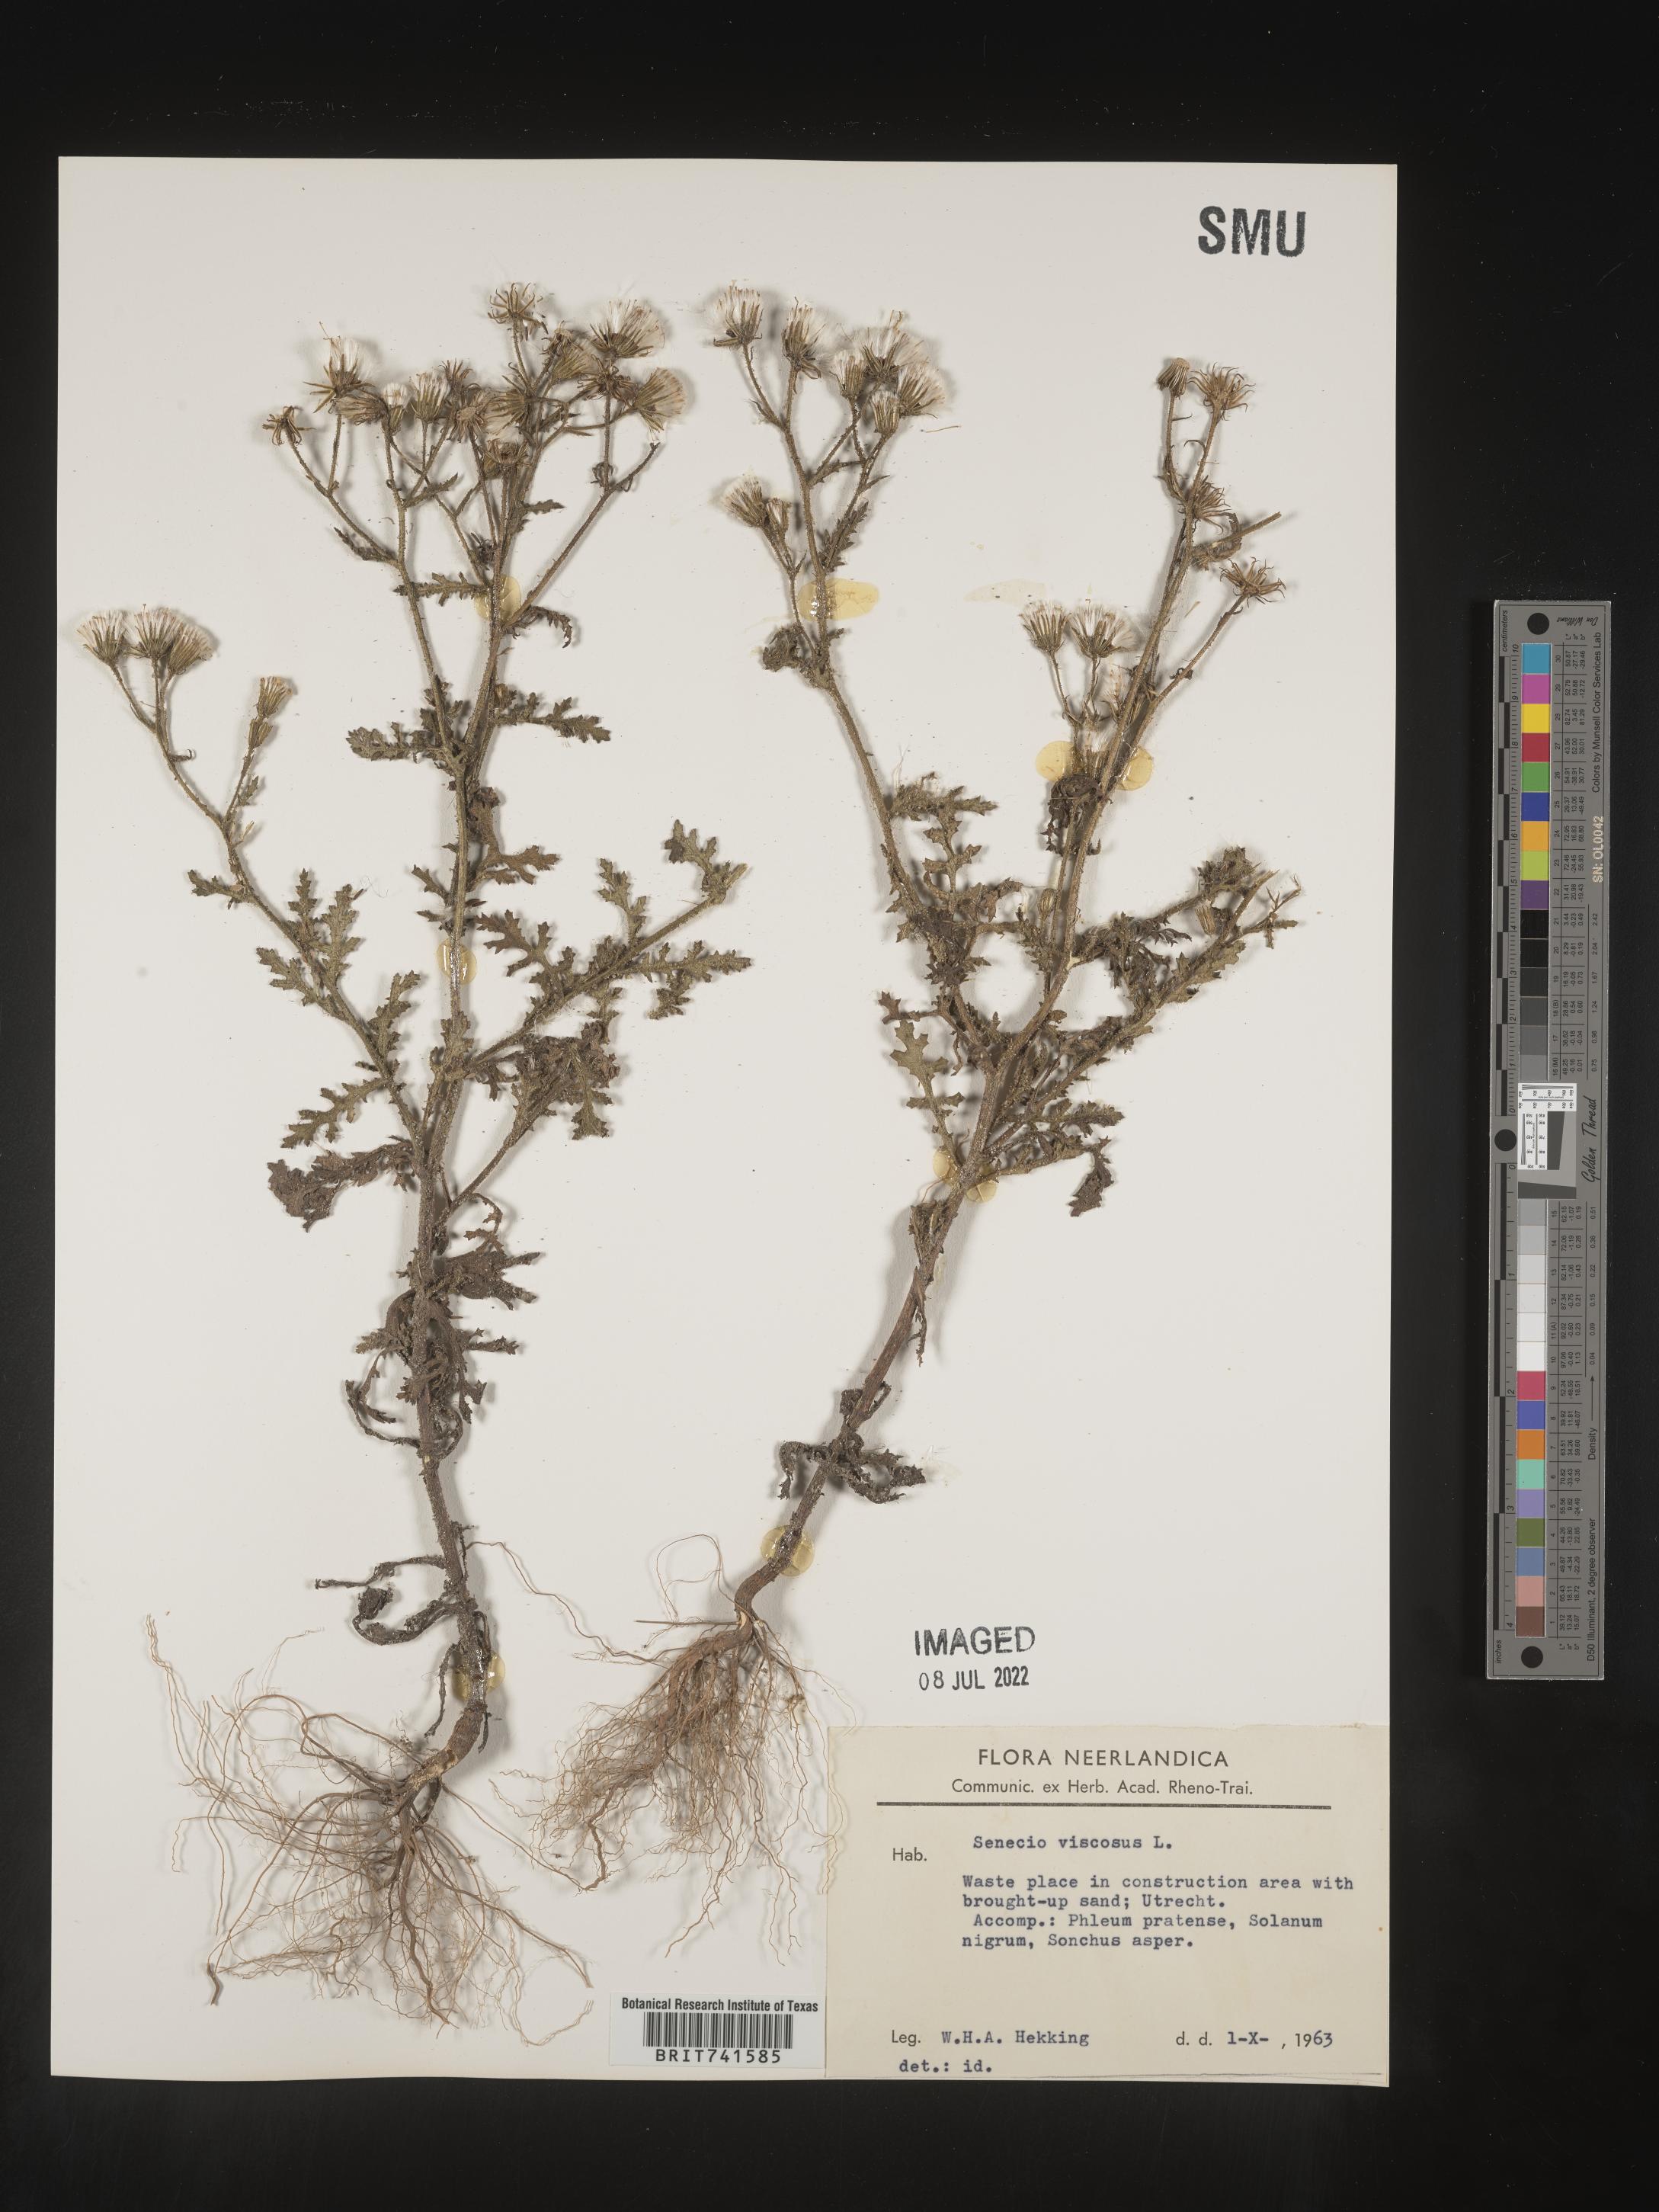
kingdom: Plantae
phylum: Tracheophyta
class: Magnoliopsida
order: Asterales
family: Asteraceae
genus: Senecio
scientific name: Senecio
